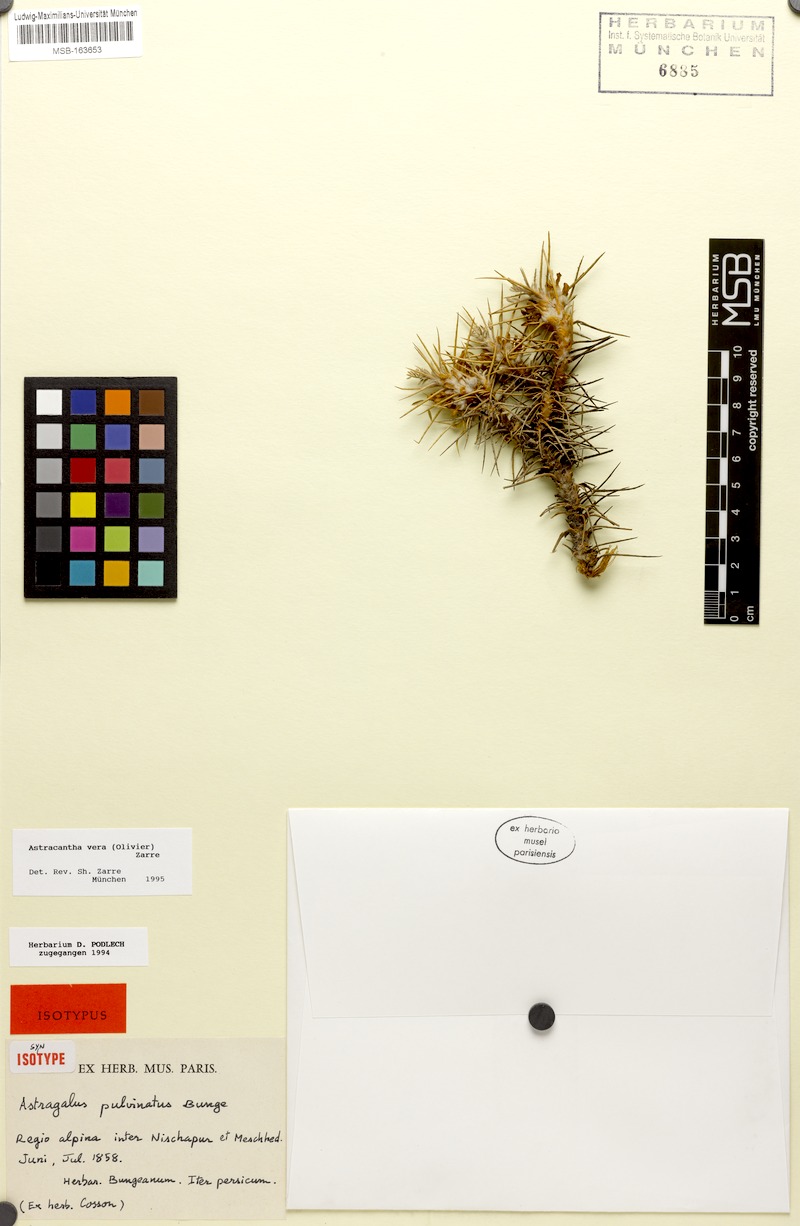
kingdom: Plantae
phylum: Tracheophyta
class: Magnoliopsida
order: Fabales
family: Fabaceae
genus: Astragalus
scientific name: Astragalus verus
